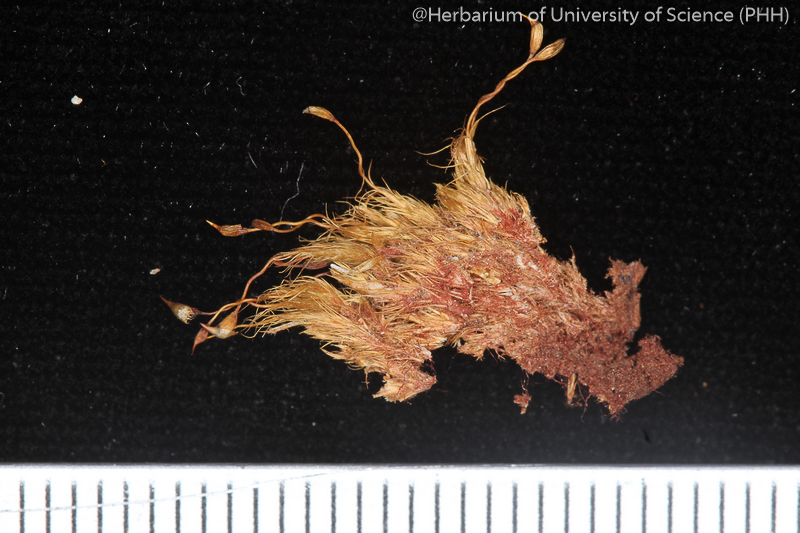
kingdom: Plantae
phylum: Bryophyta
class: Bryopsida
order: Dicranales
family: Leucobryaceae
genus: Campylopus
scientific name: Campylopus laxitextus
